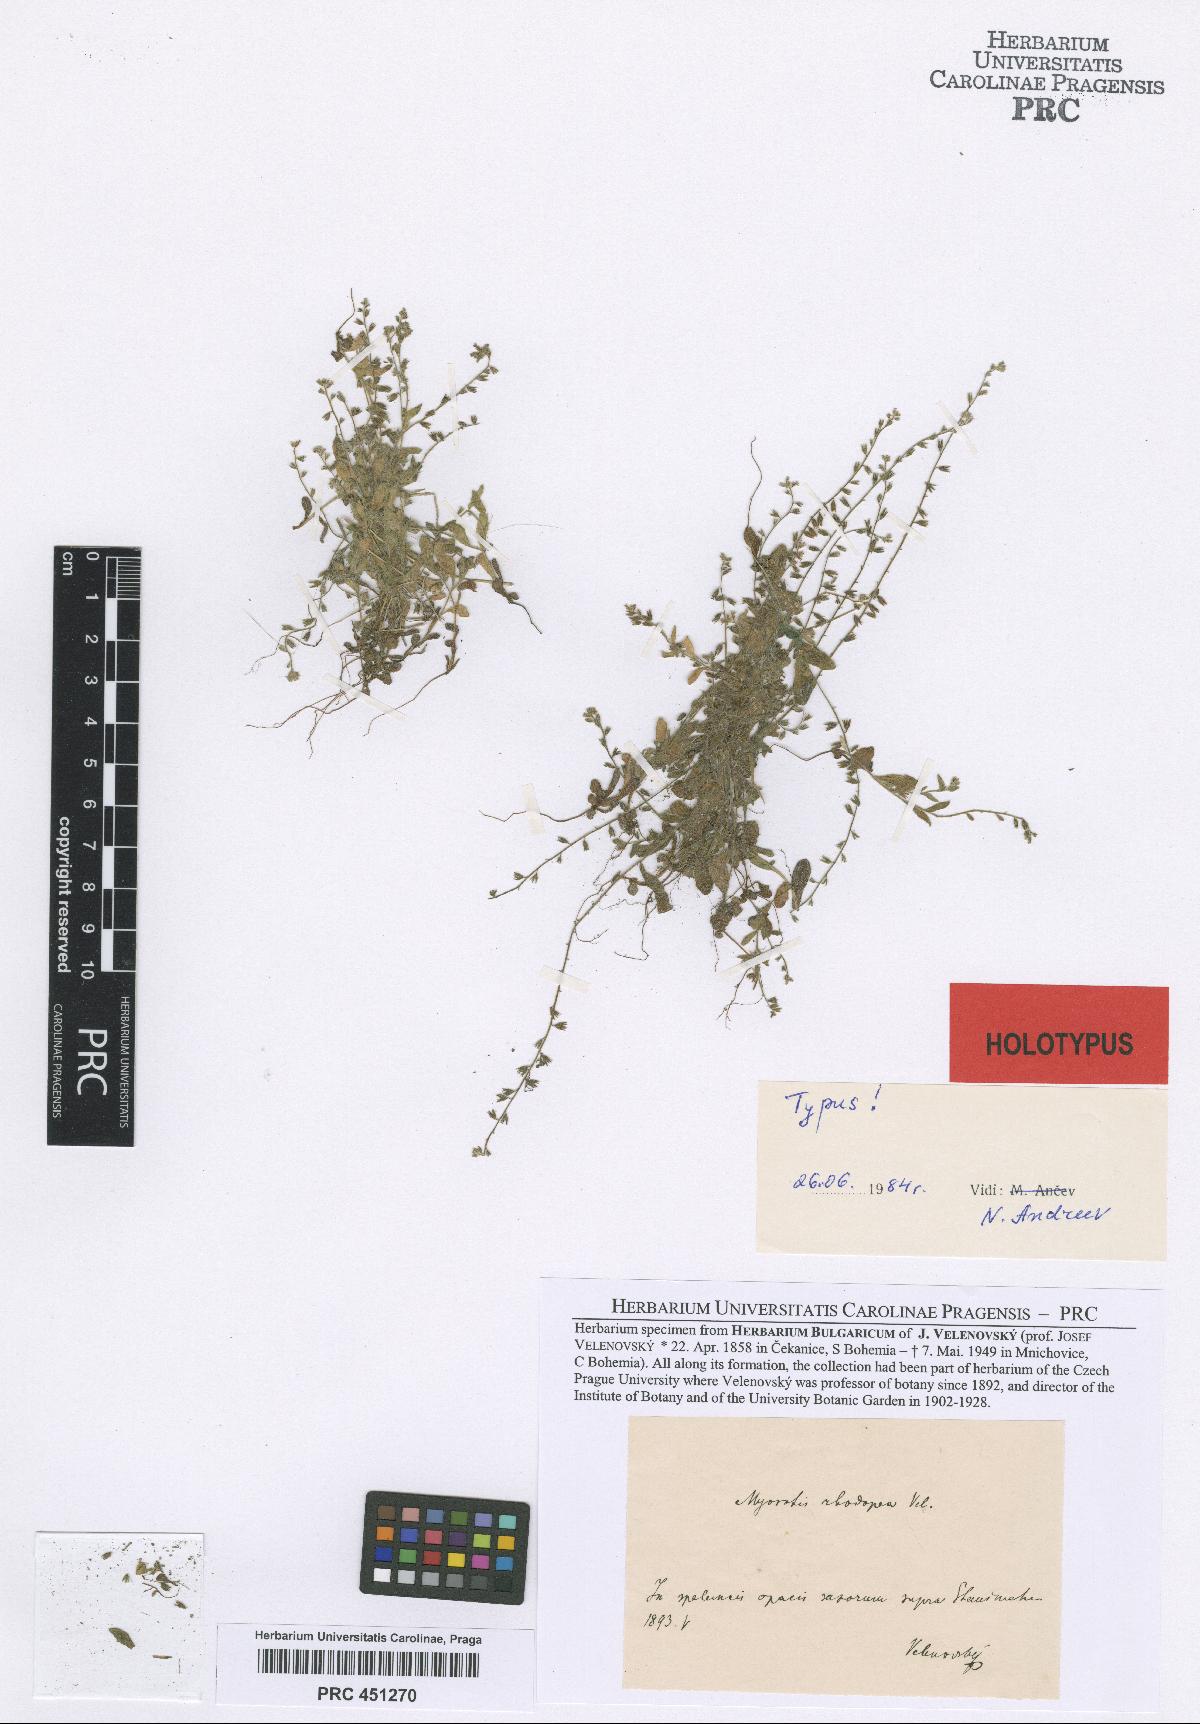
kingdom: Plantae
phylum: Tracheophyta
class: Magnoliopsida
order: Boraginales
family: Boraginaceae
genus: Myosotis
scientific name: Myosotis minutiflora
